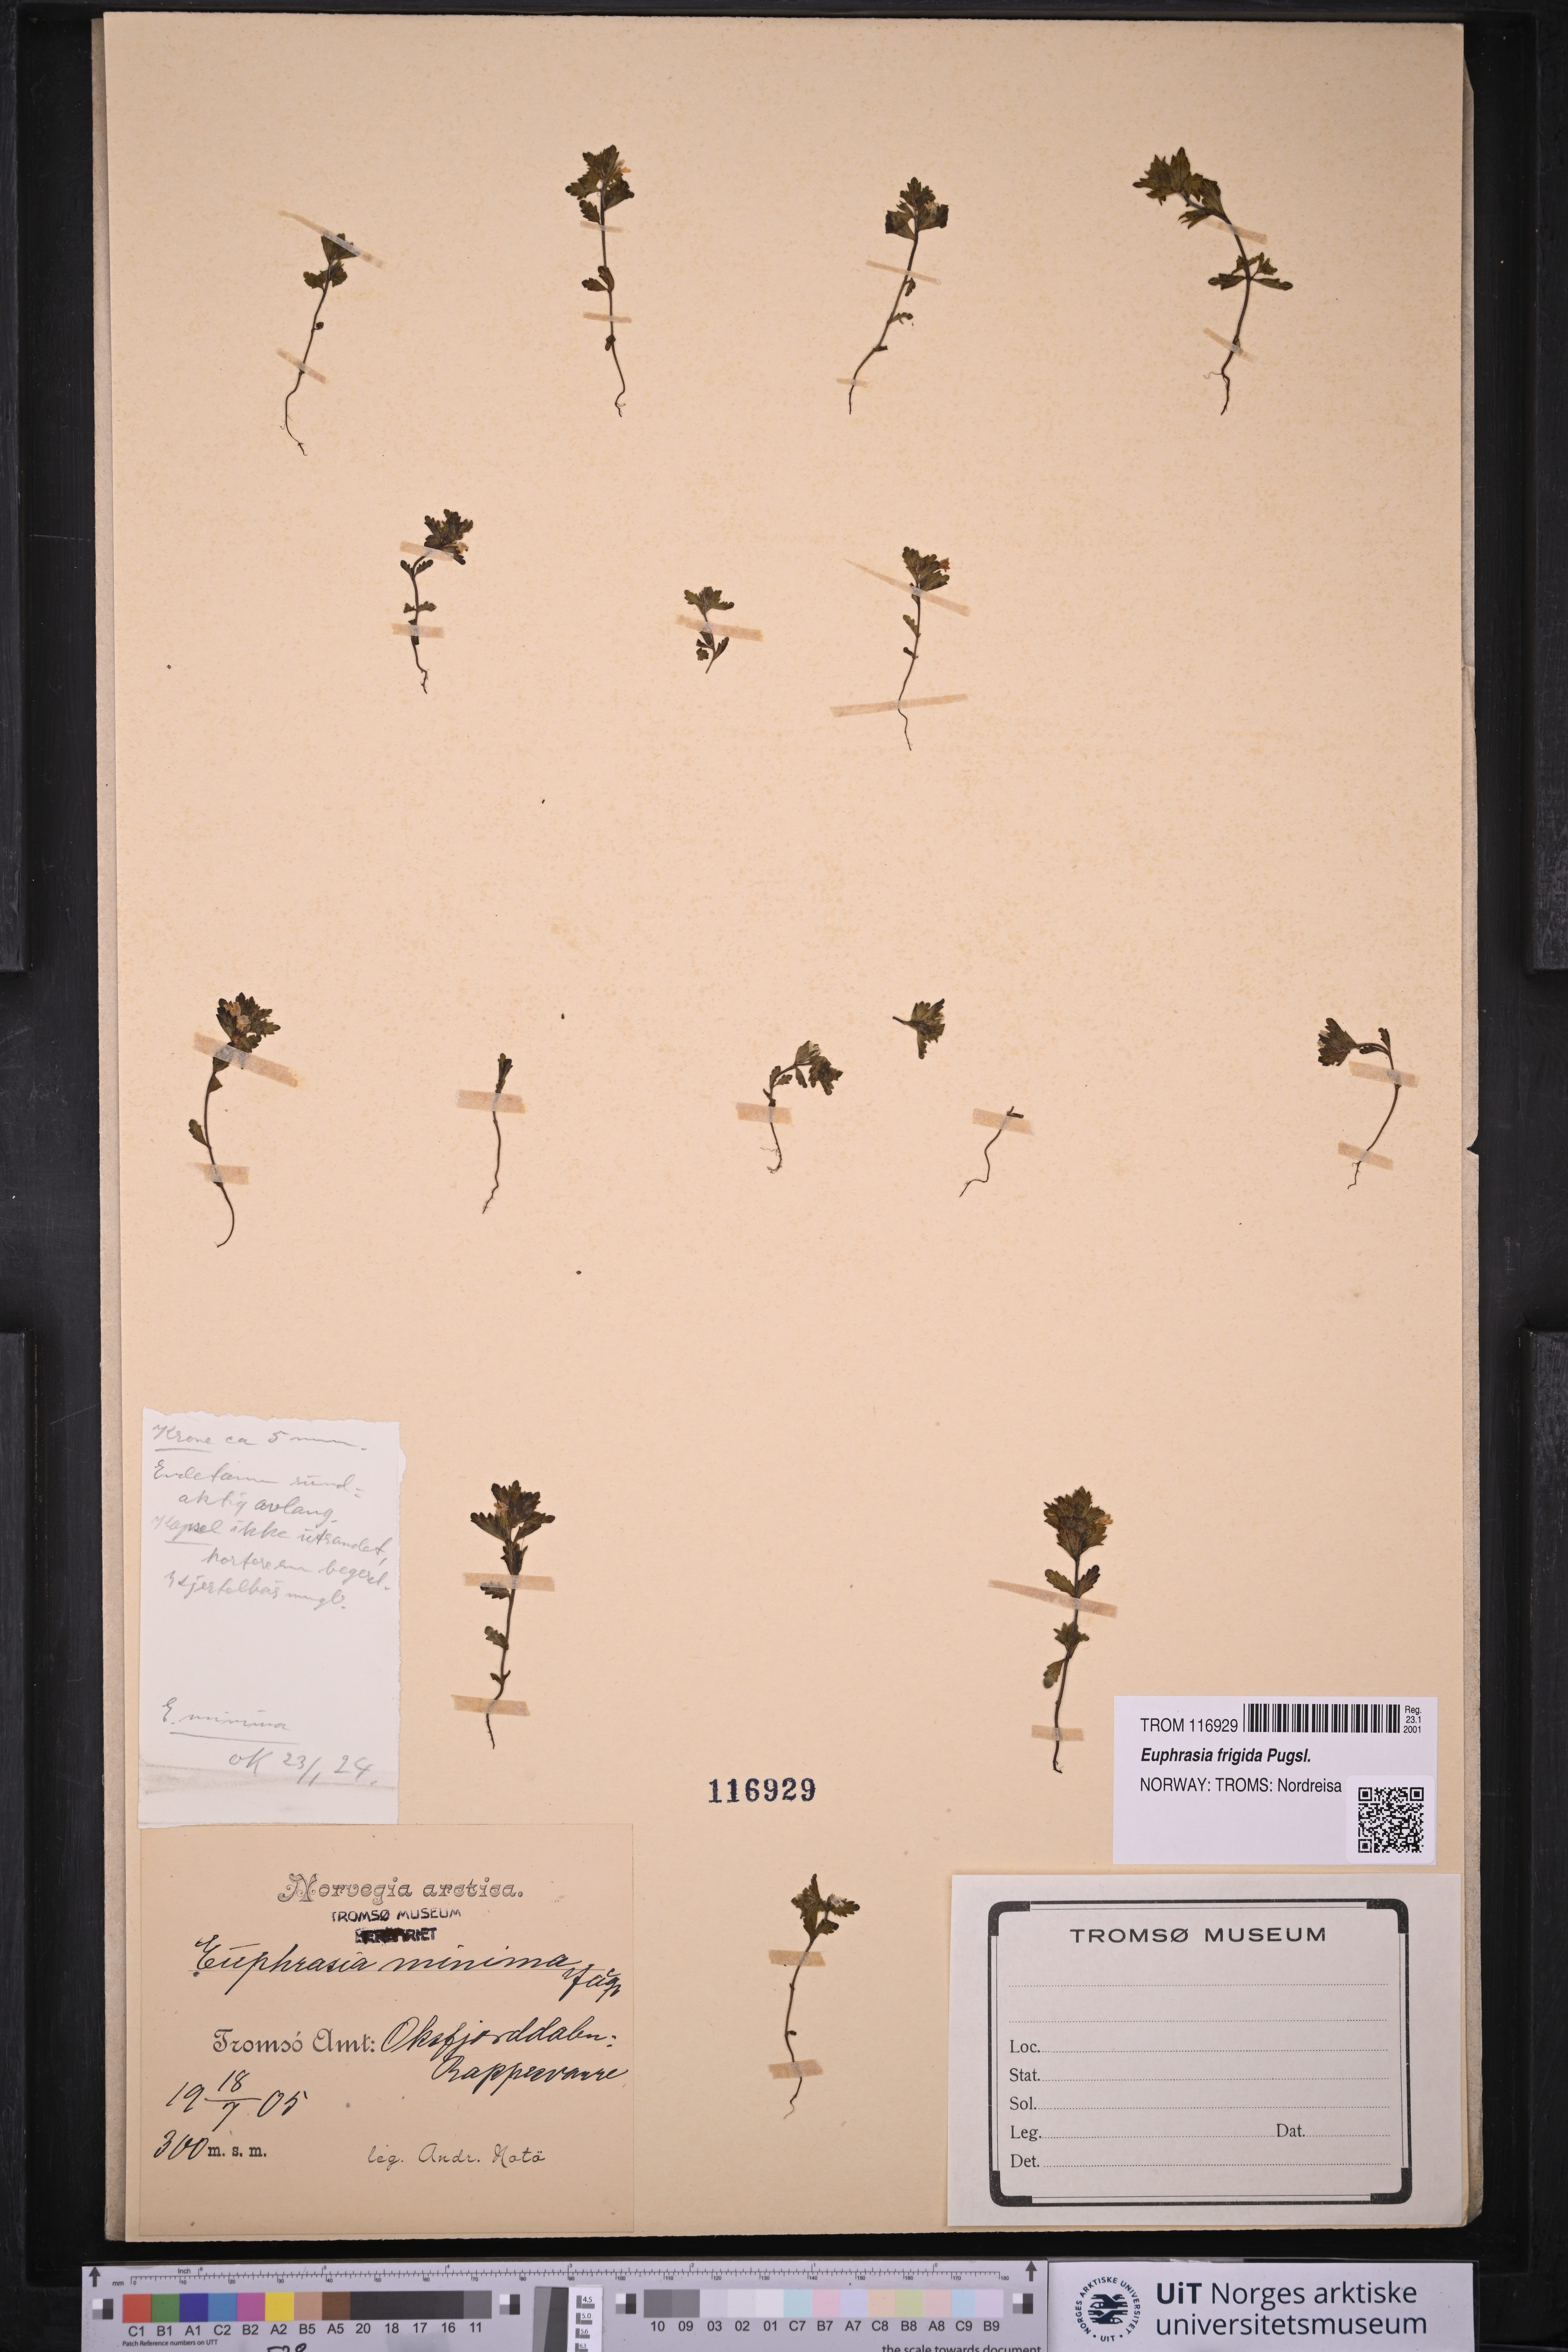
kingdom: Plantae
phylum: Tracheophyta
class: Magnoliopsida
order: Lamiales
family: Orobanchaceae
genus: Euphrasia
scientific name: Euphrasia wettsteinii
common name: Wettstein's eyebright
